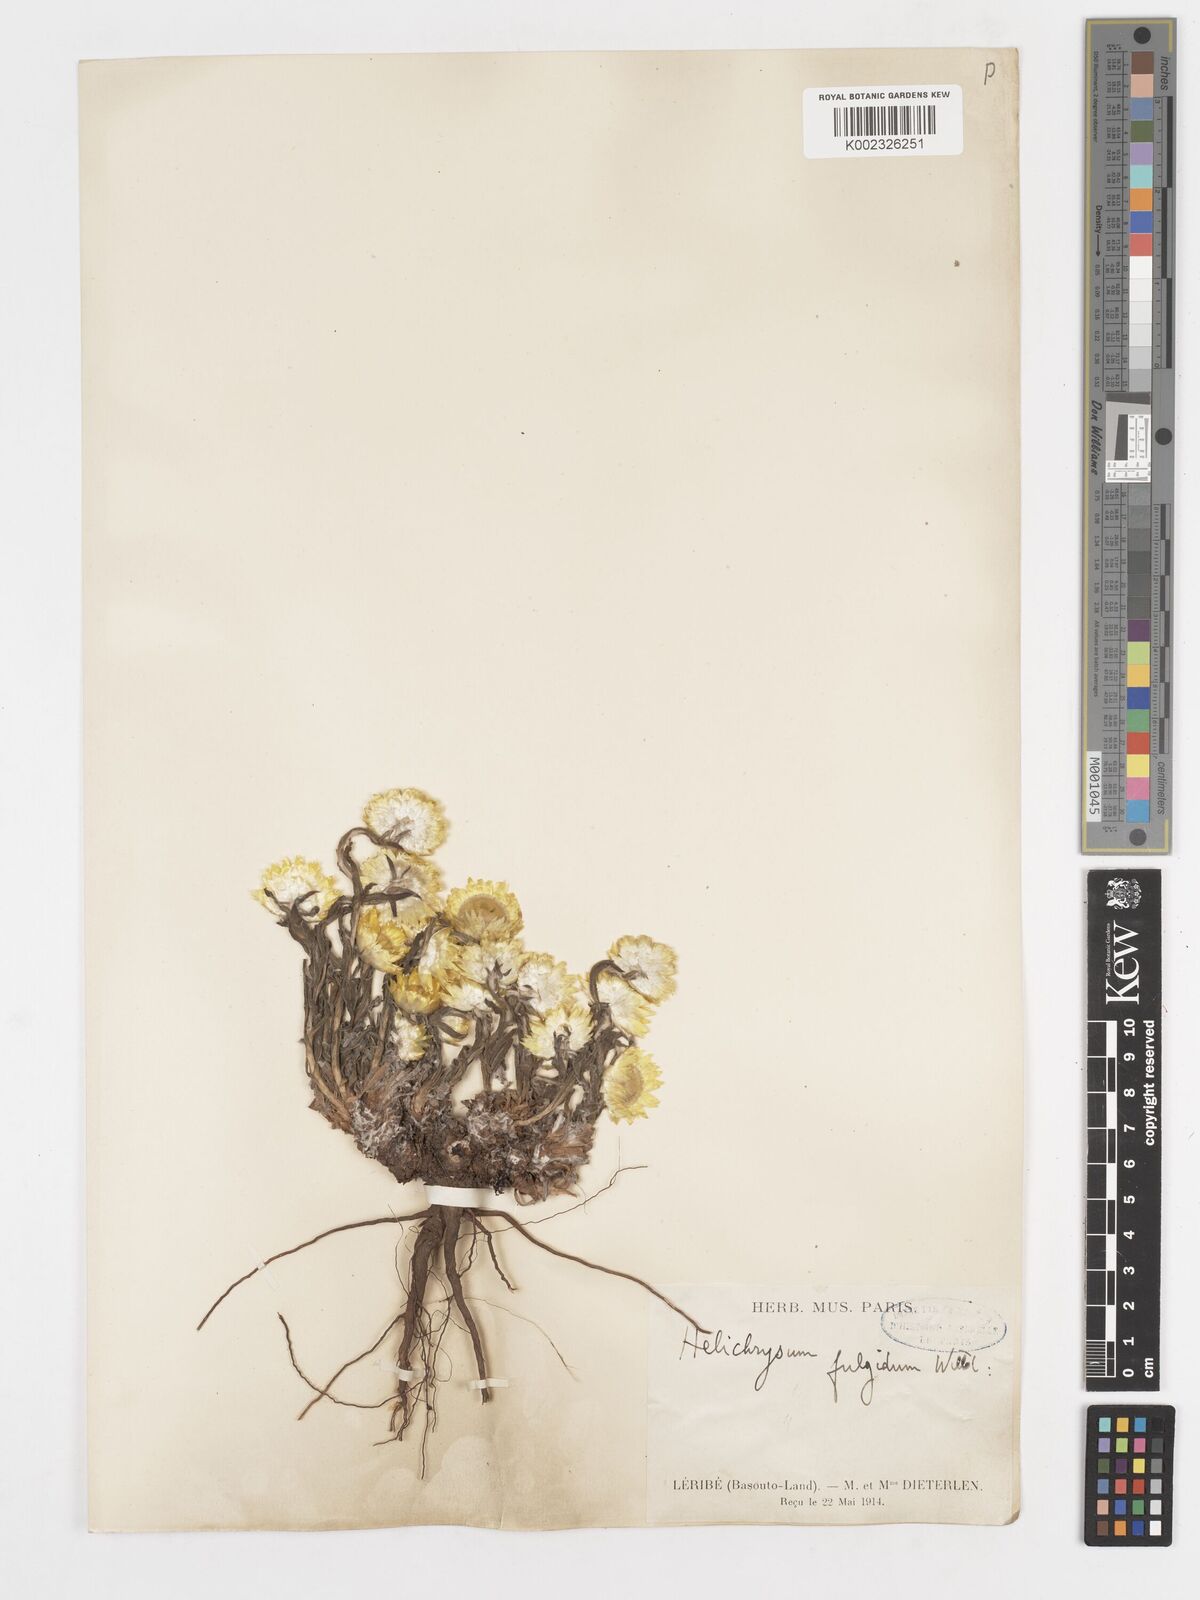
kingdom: Plantae
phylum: Tracheophyta
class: Magnoliopsida
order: Asterales
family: Asteraceae
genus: Helichrysum
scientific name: Helichrysum aureum
